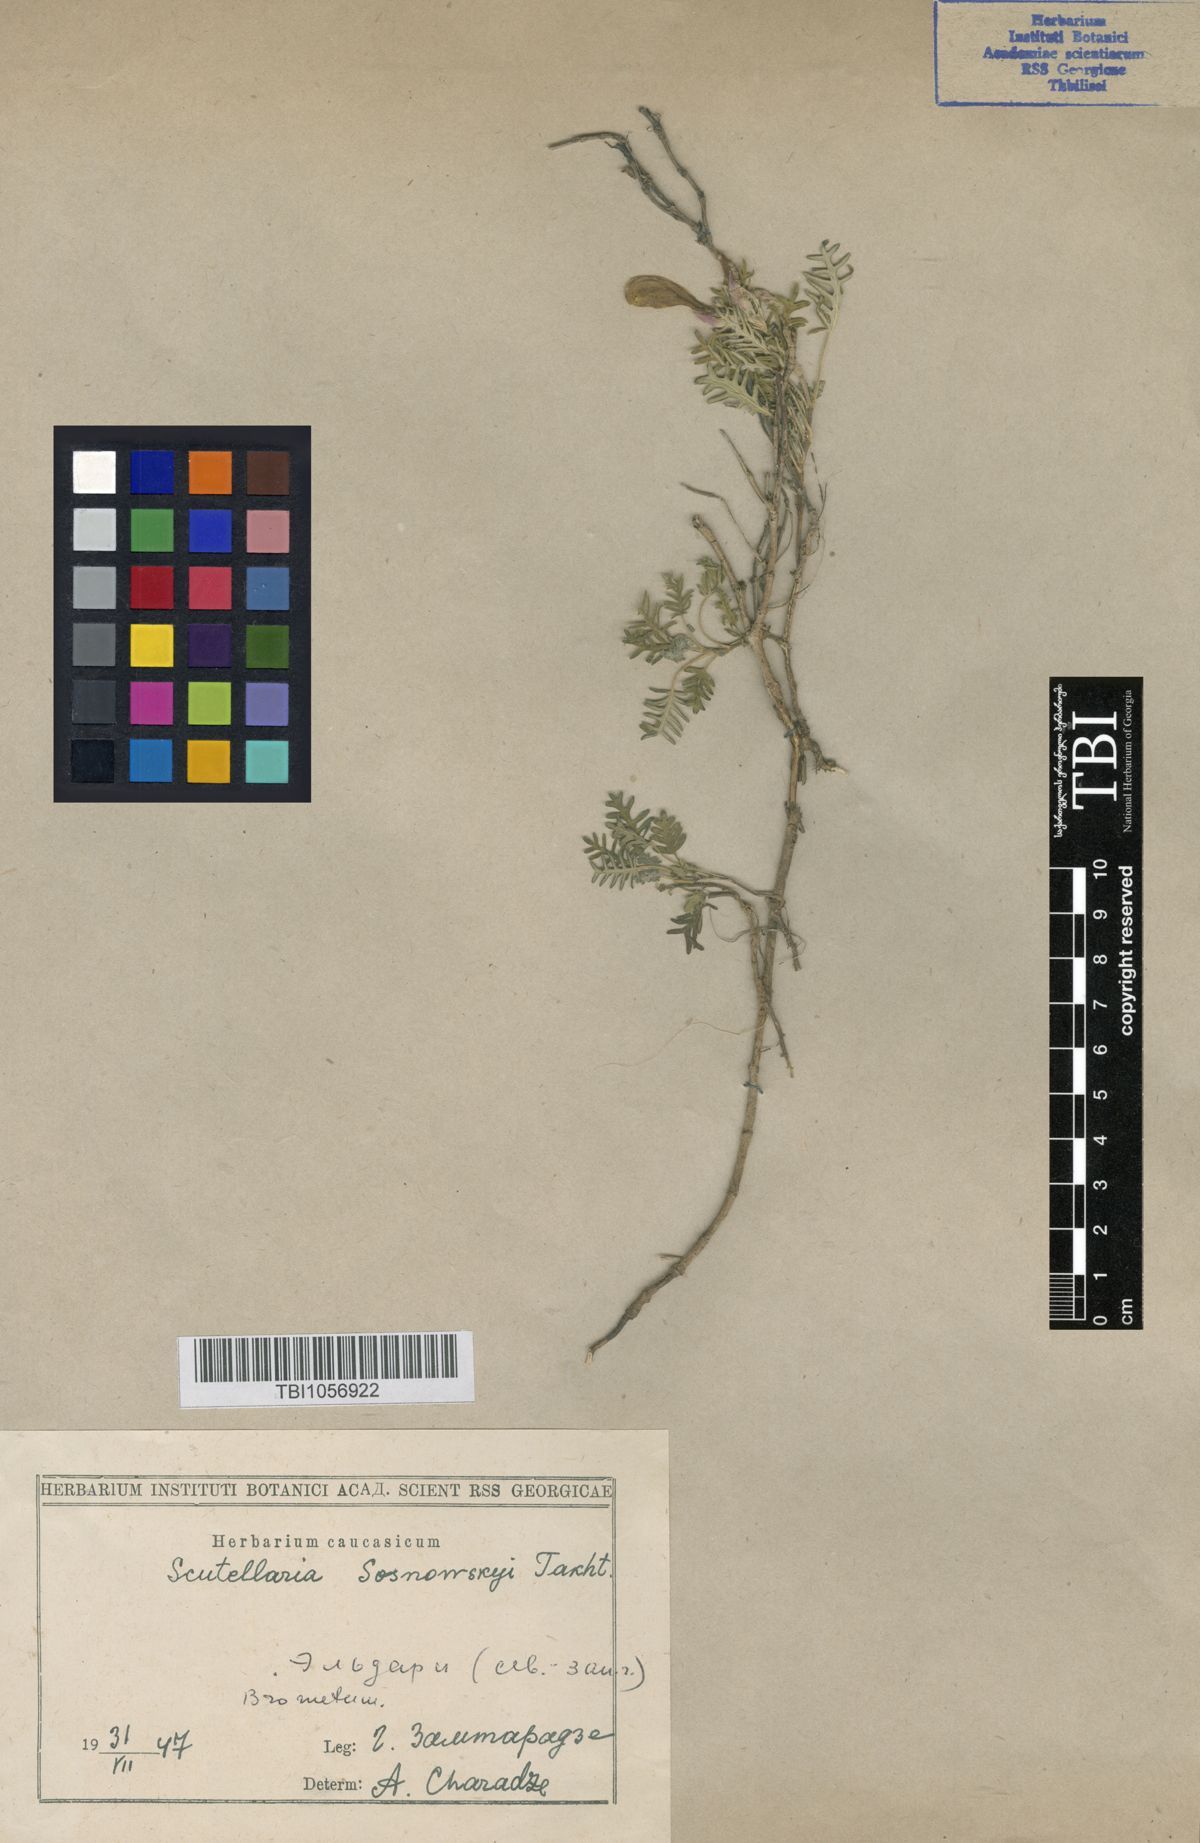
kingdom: Plantae
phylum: Tracheophyta
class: Magnoliopsida
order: Lamiales
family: Lamiaceae
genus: Scutellaria
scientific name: Scutellaria sosnowskyi
